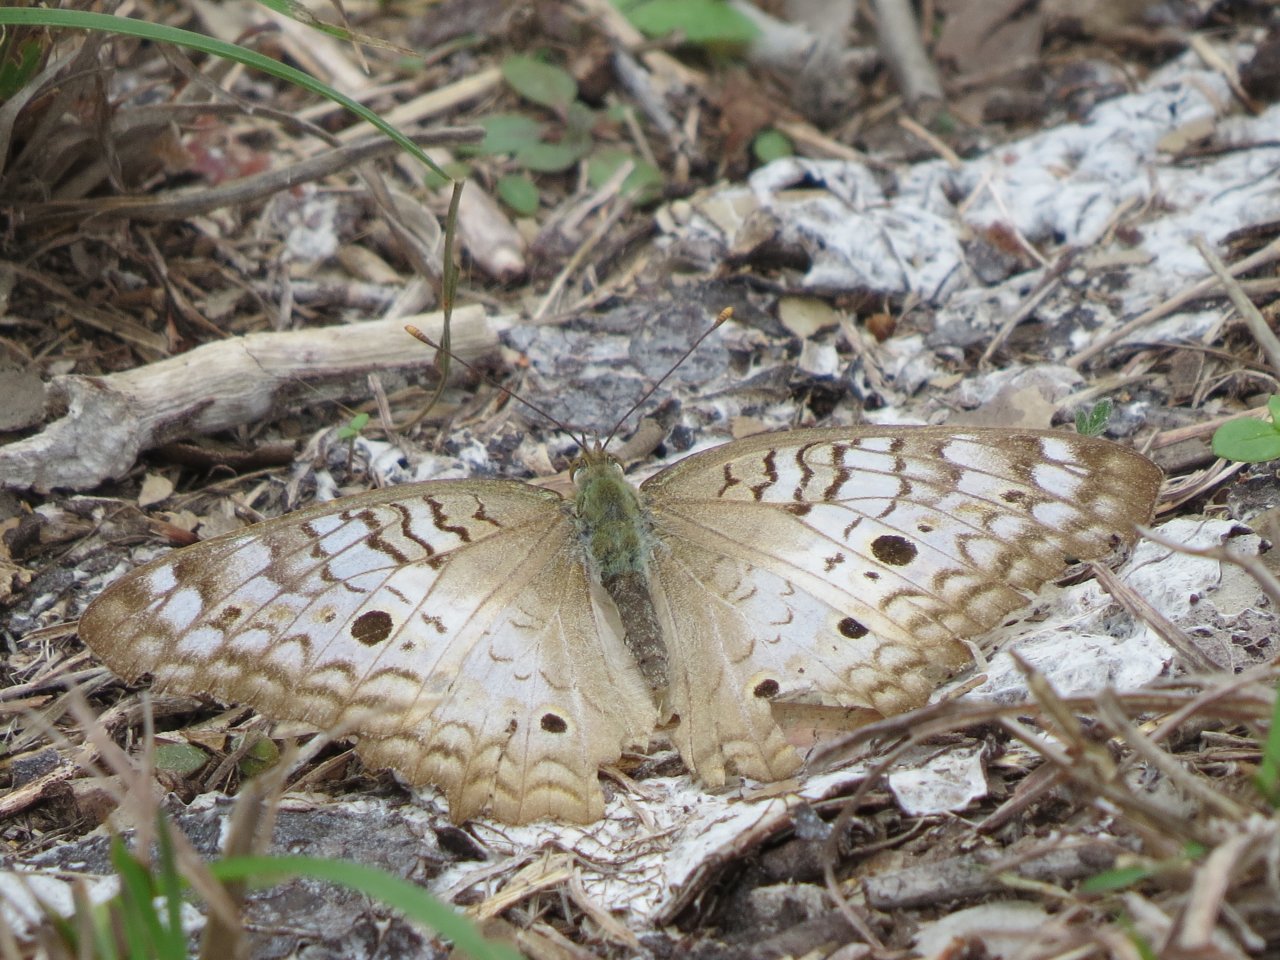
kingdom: Animalia
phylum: Arthropoda
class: Insecta
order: Lepidoptera
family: Nymphalidae
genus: Anartia
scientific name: Anartia jatrophae
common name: White Peacock
